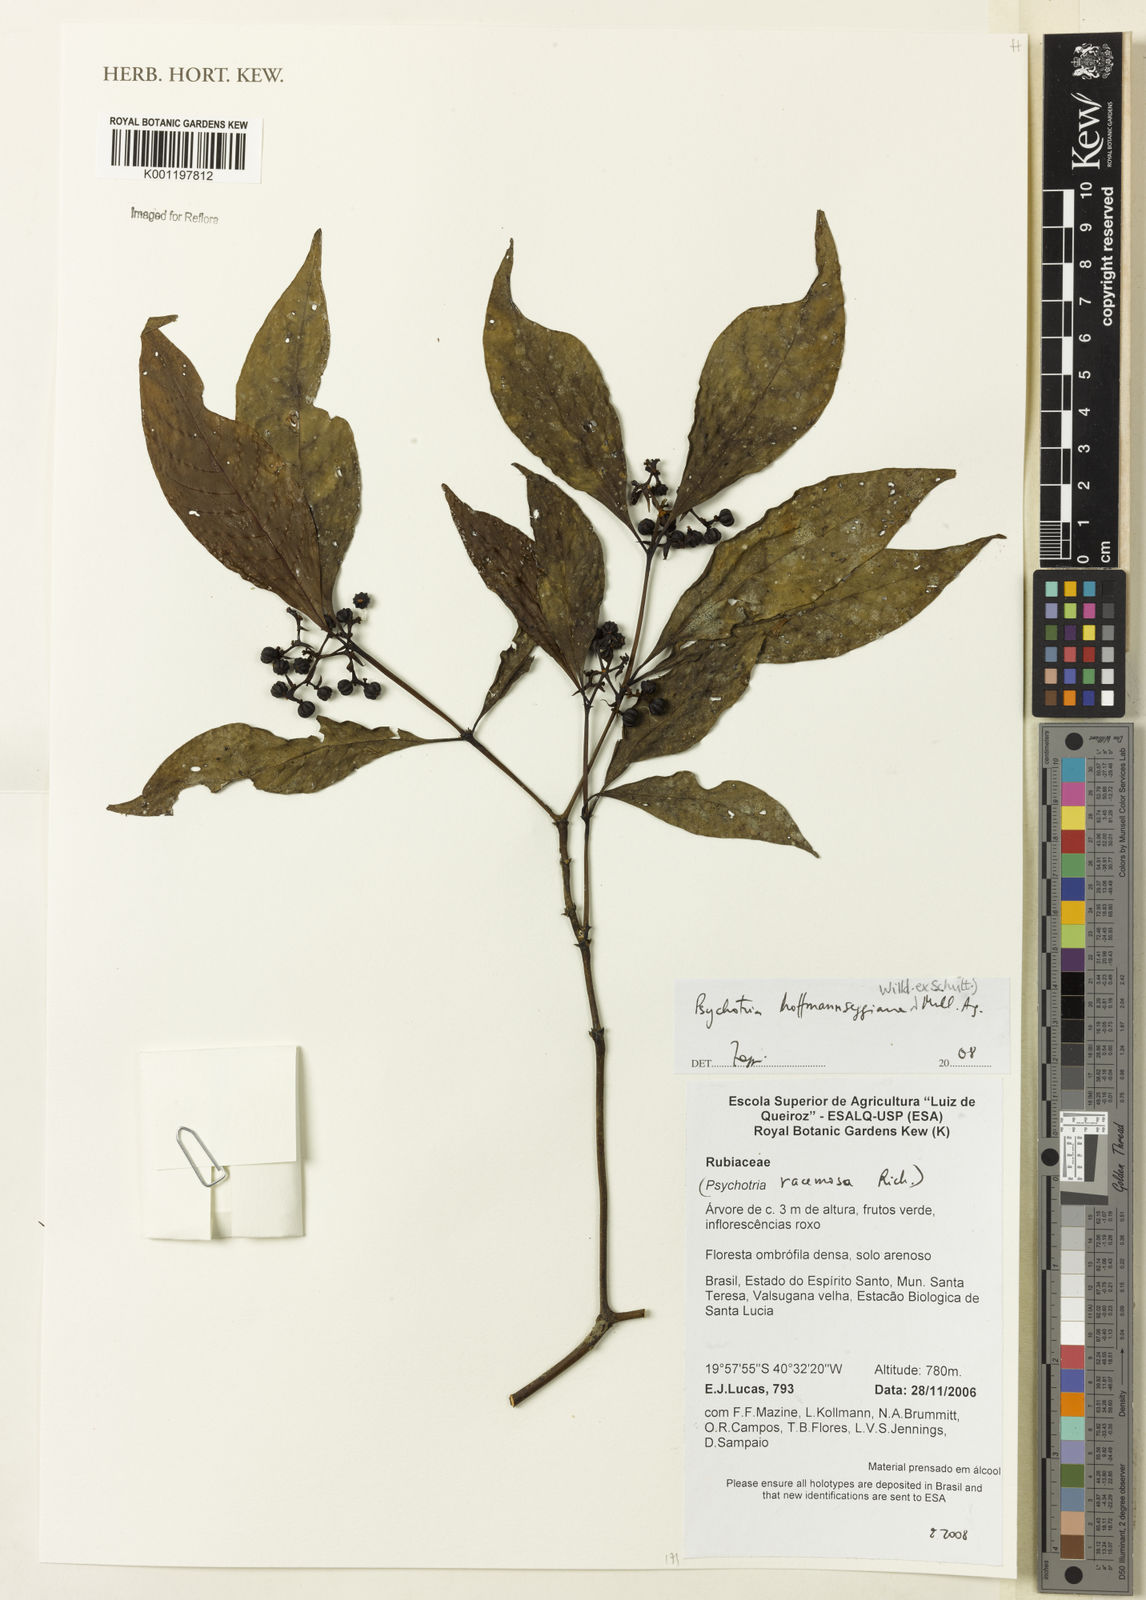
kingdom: Plantae
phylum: Tracheophyta
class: Magnoliopsida
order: Gentianales
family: Rubiaceae
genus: Psychotria
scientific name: Psychotria
